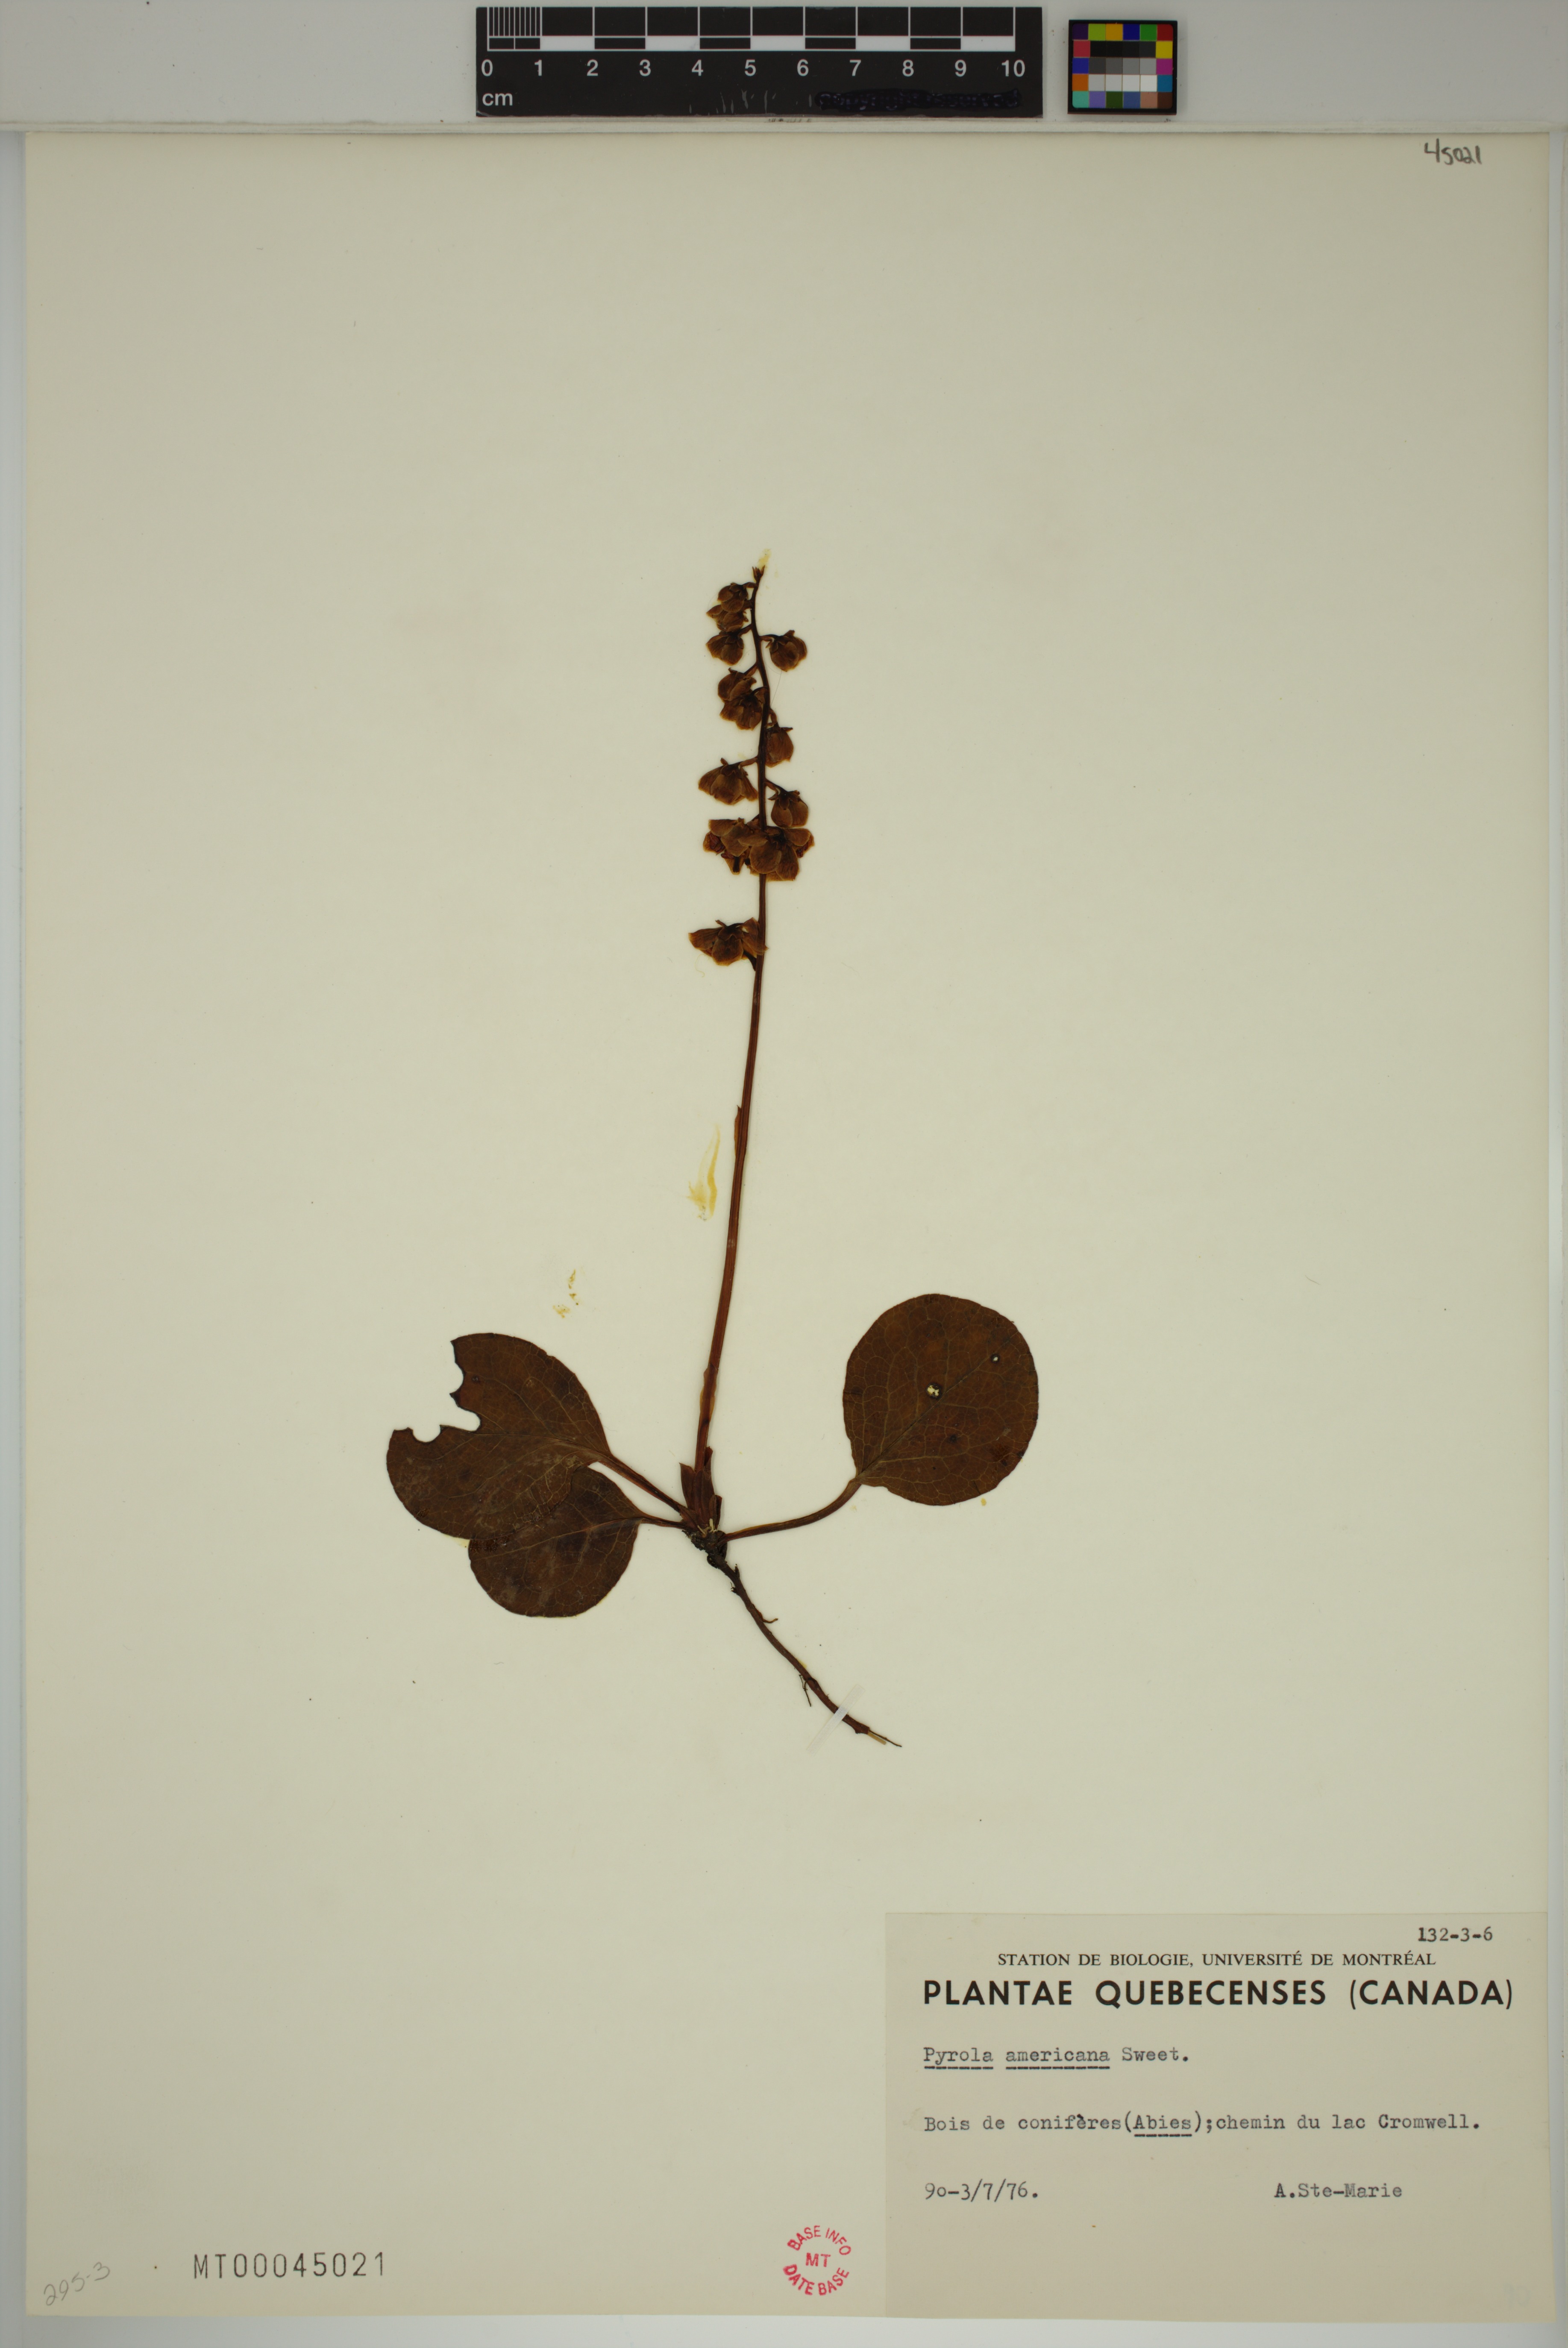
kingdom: Plantae
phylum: Tracheophyta
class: Magnoliopsida
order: Ericales
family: Ericaceae
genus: Pyrola
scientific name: Pyrola americana
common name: American wintergreen
